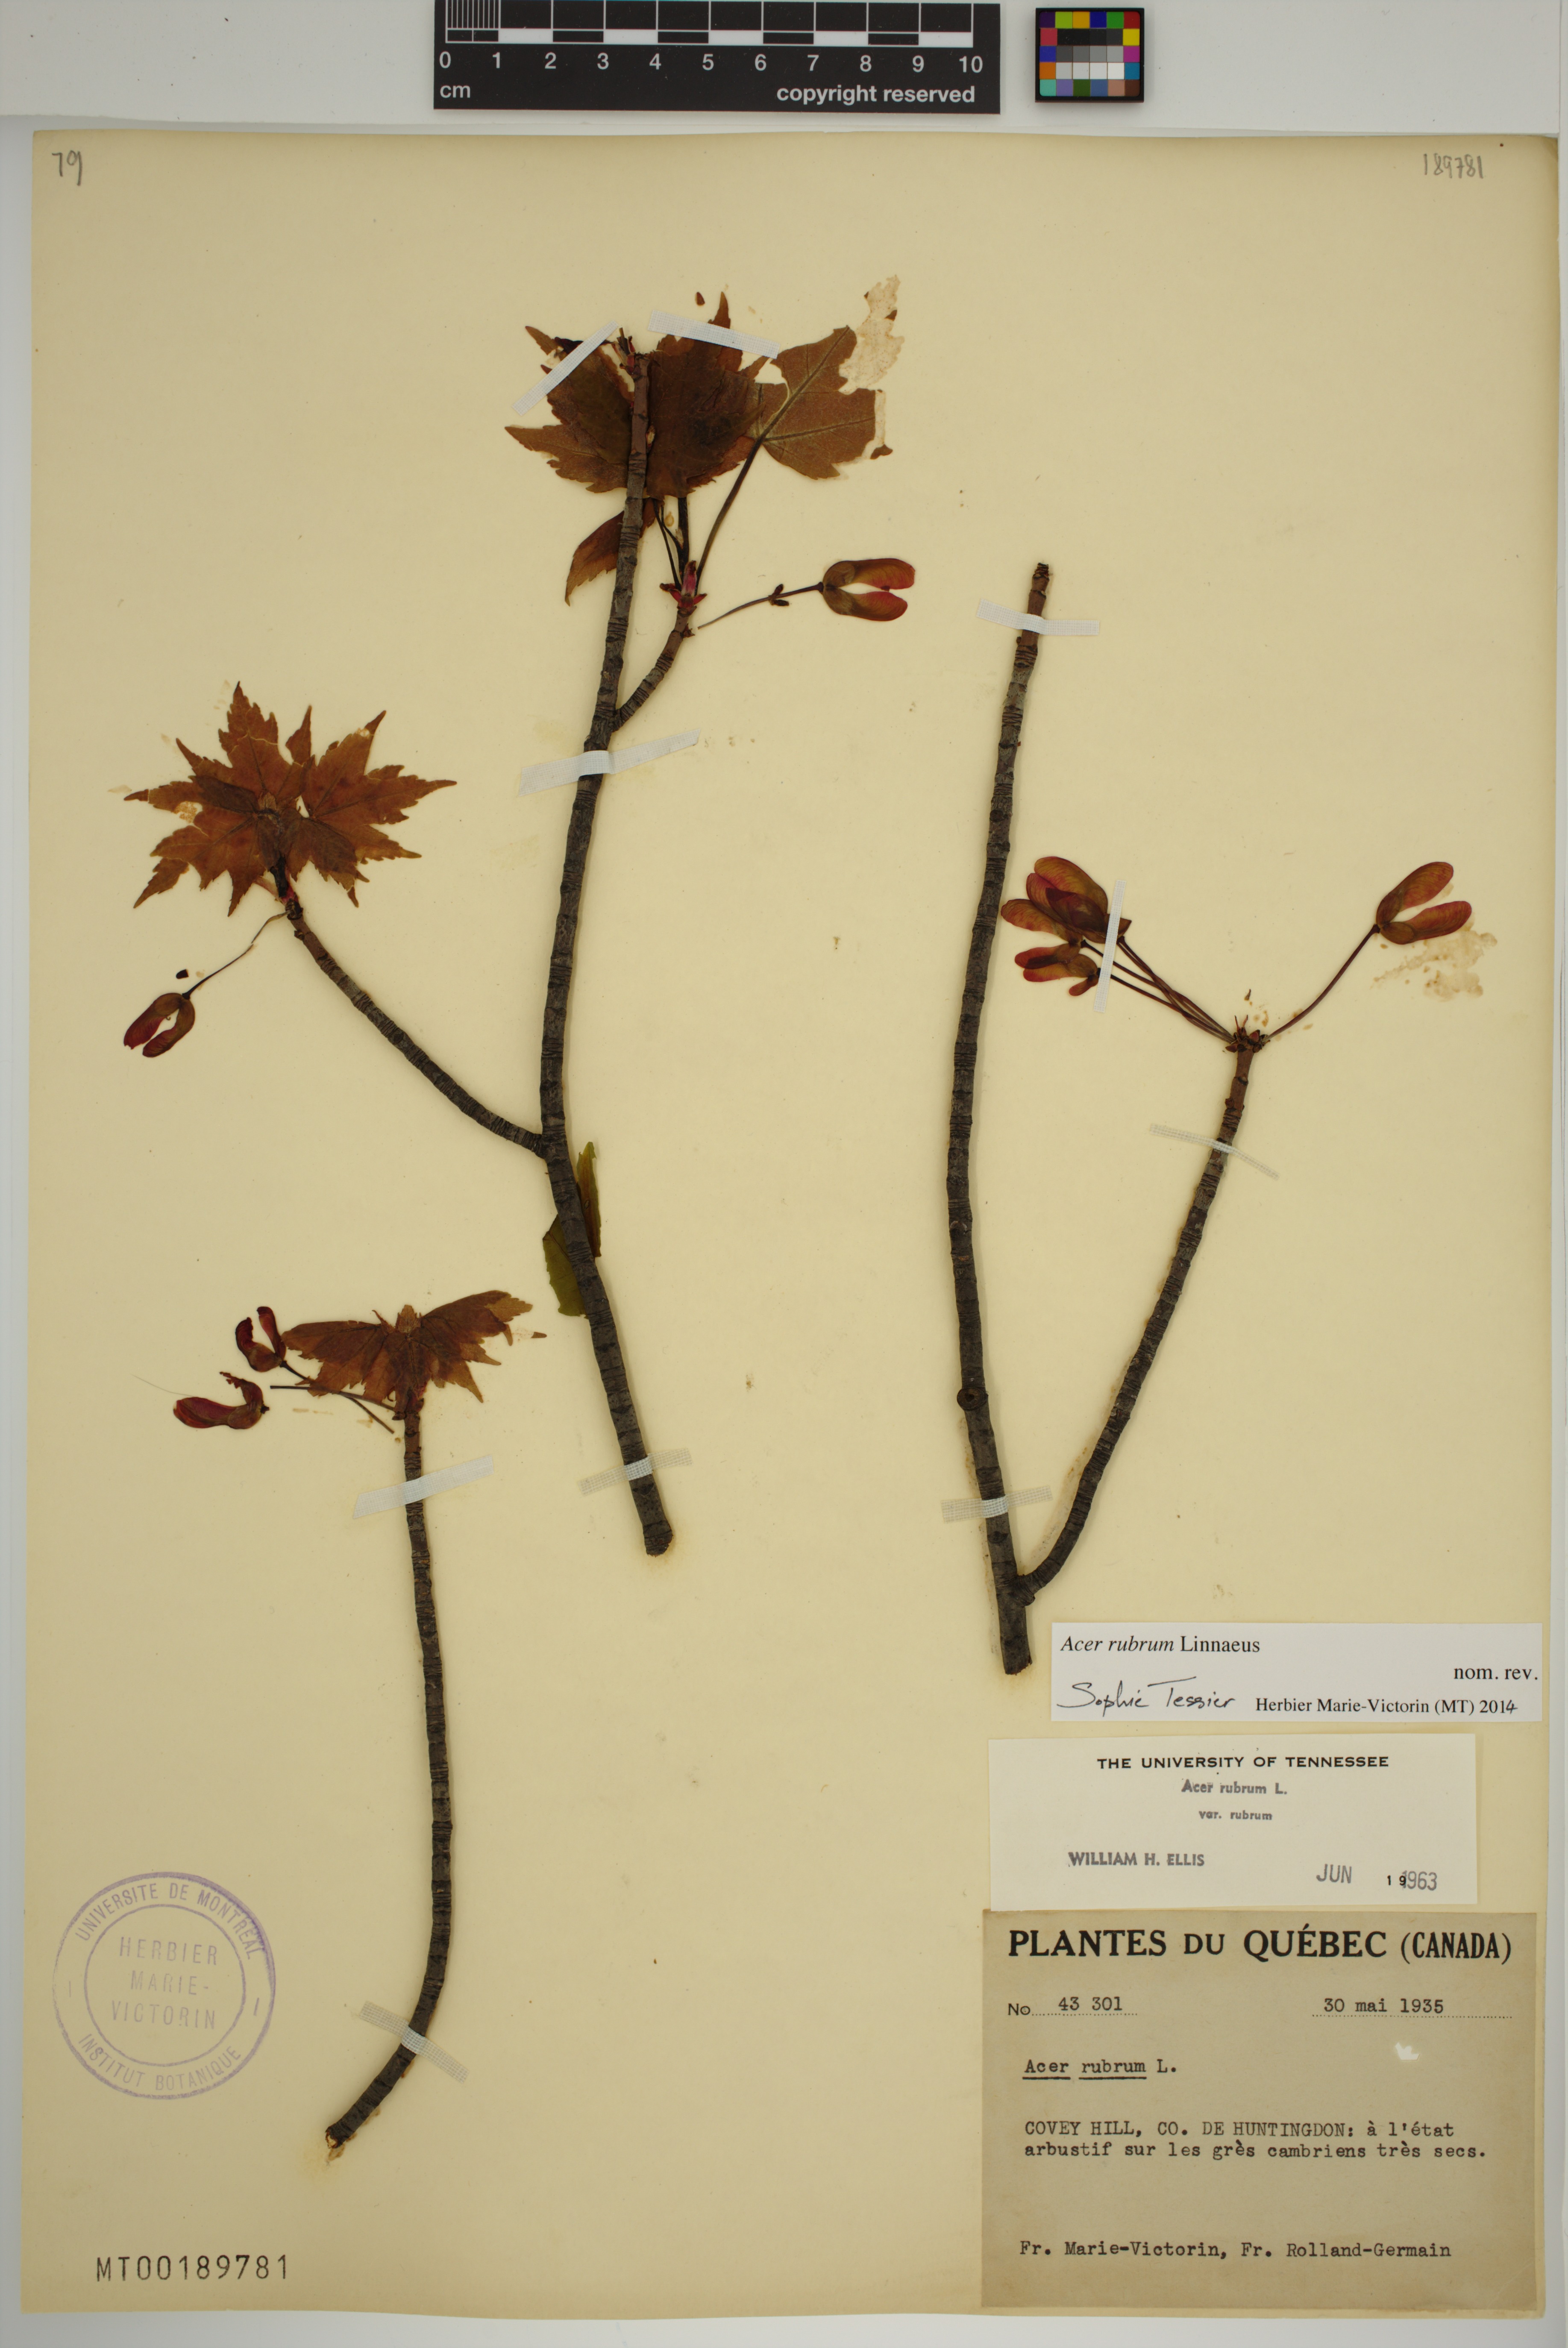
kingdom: Plantae
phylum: Tracheophyta
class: Magnoliopsida
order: Sapindales
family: Sapindaceae
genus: Acer
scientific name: Acer rubrum
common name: Red maple
